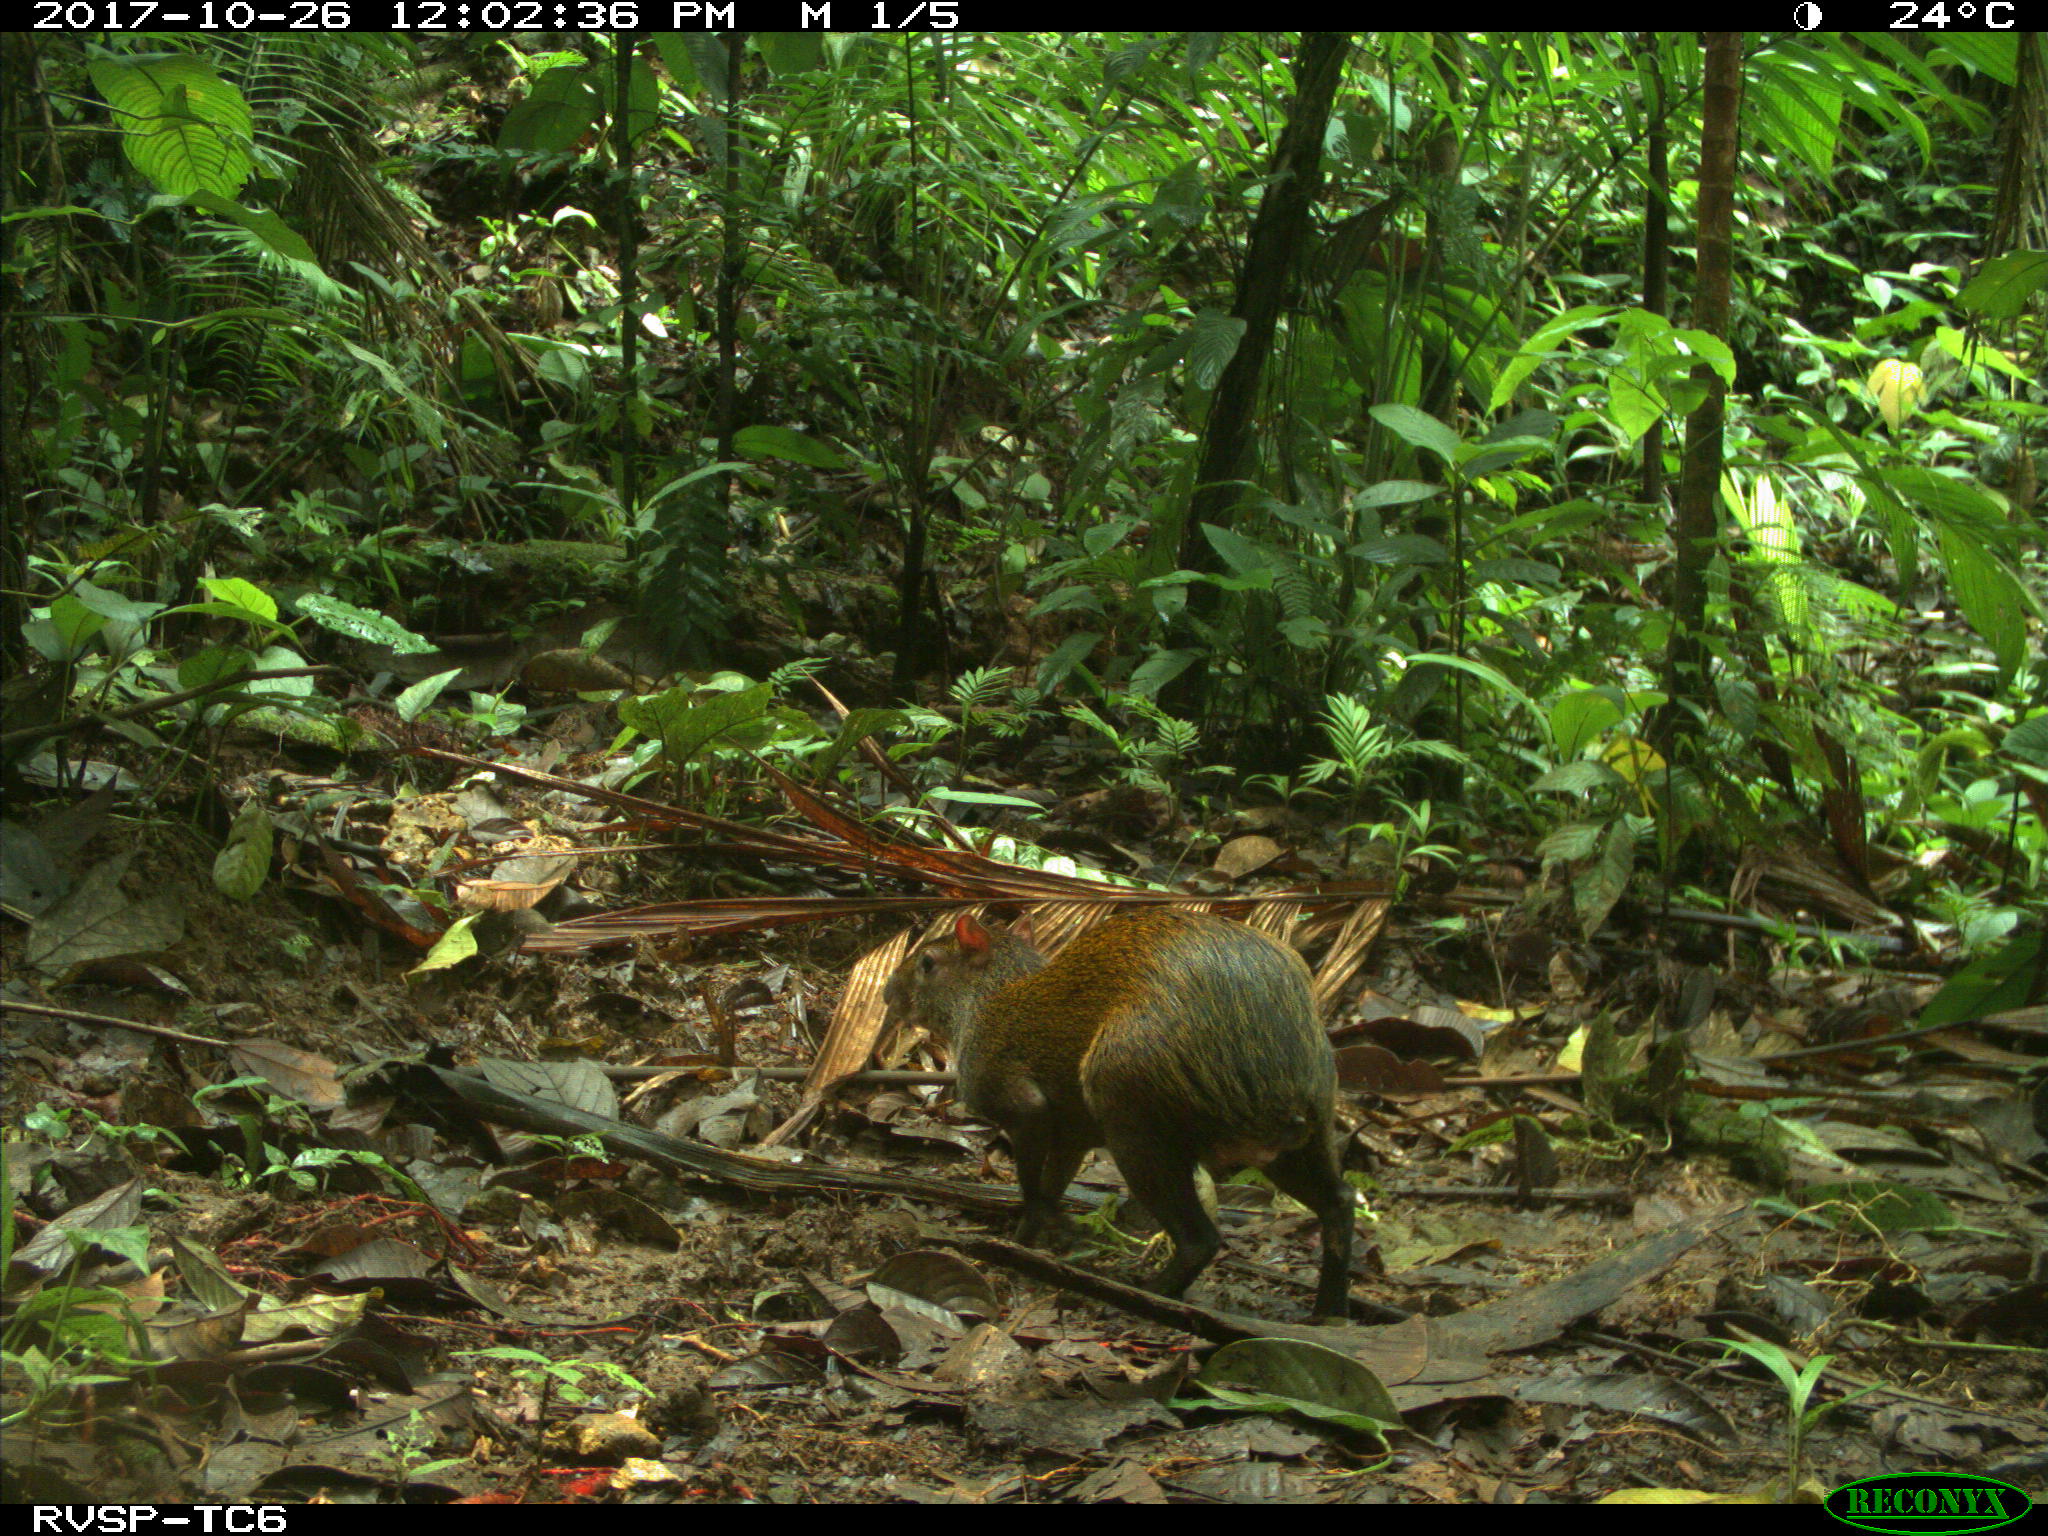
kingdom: Animalia
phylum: Chordata
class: Mammalia
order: Rodentia
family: Dasyproctidae
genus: Dasyprocta
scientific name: Dasyprocta punctata
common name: Central american agouti
